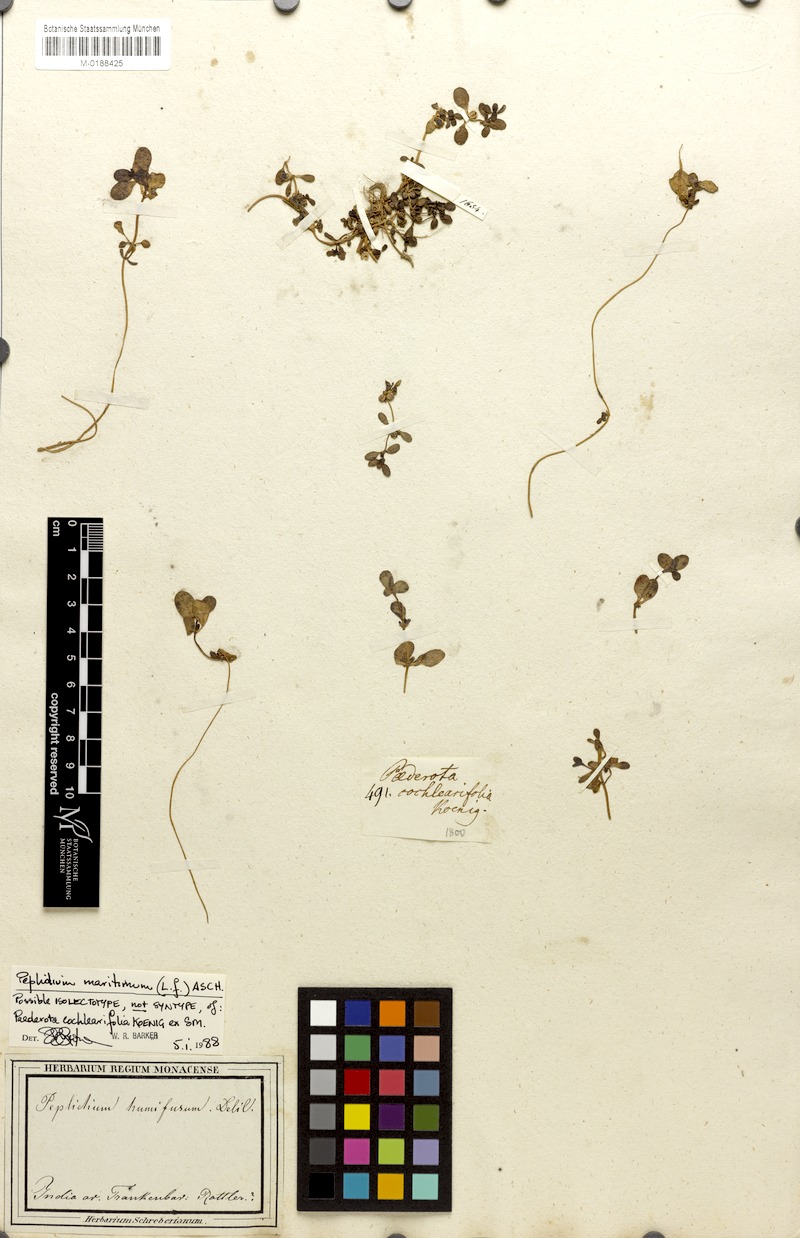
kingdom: Plantae
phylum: Tracheophyta
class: Magnoliopsida
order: Lamiales
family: Phrymaceae
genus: Peplidium
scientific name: Peplidium maritimum
